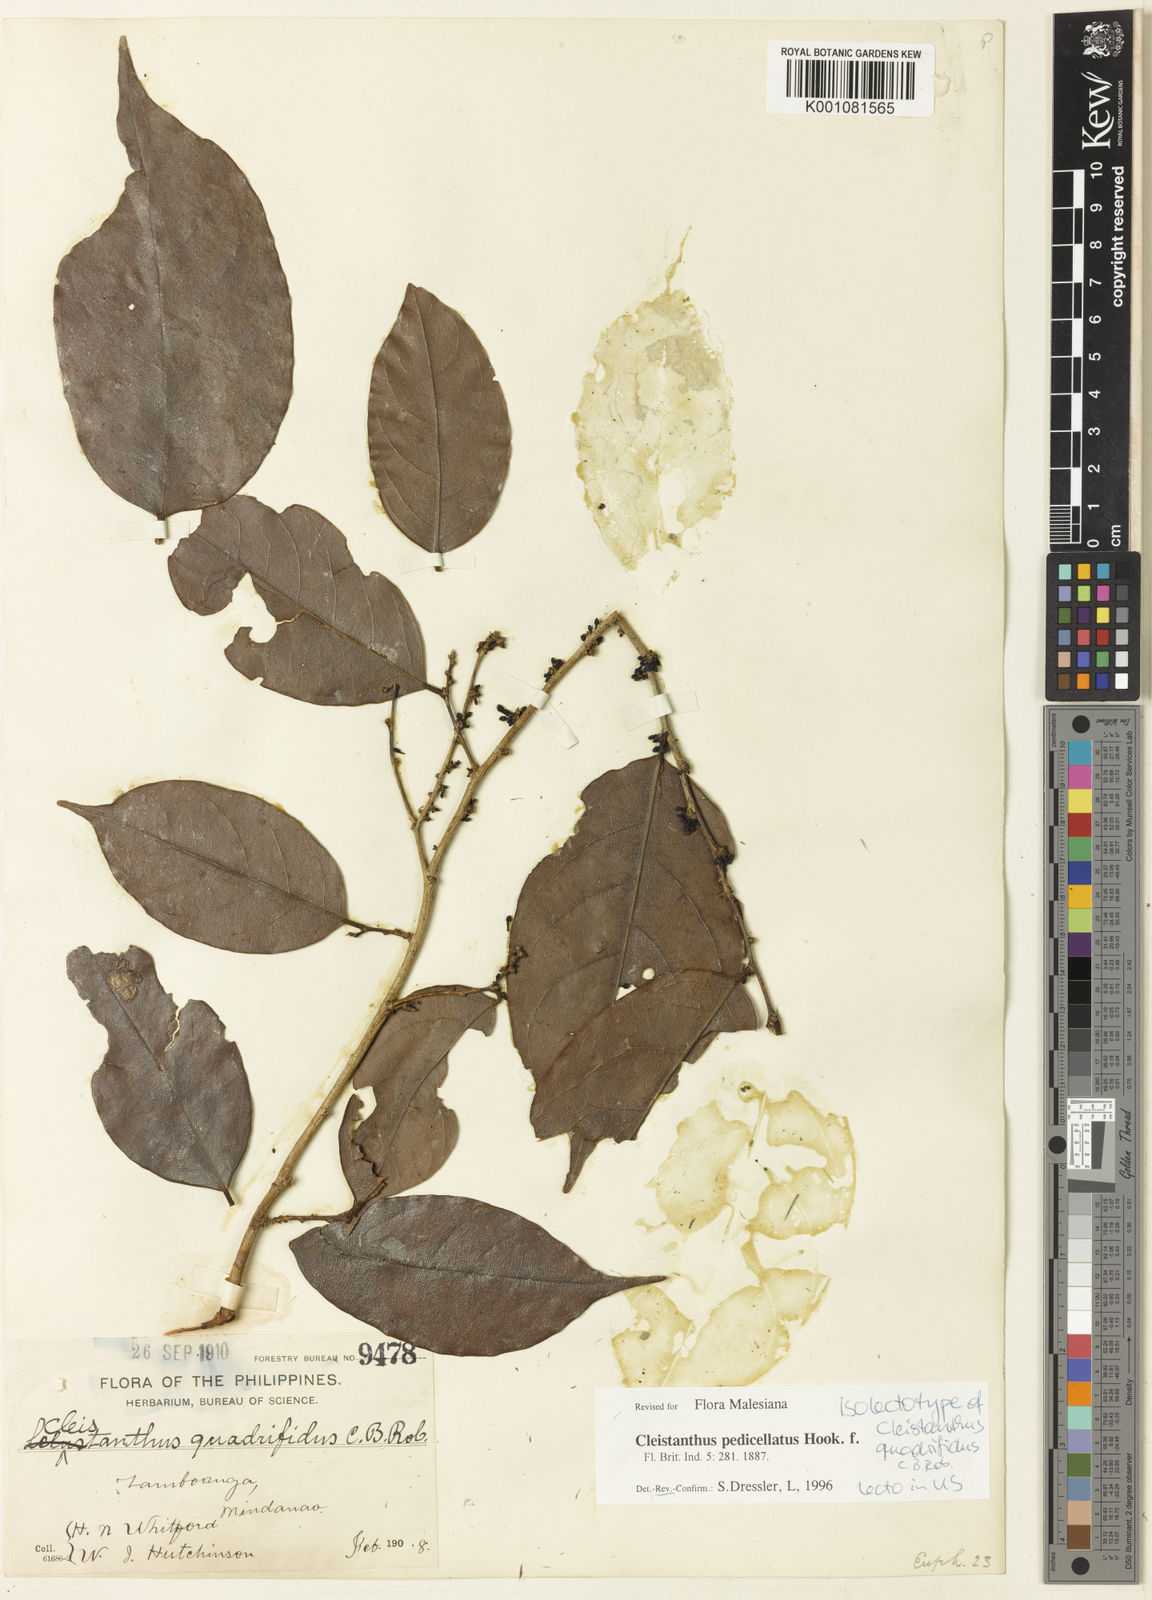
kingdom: Plantae
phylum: Tracheophyta
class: Magnoliopsida
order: Malpighiales
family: Phyllanthaceae
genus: Cleistanthus
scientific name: Cleistanthus pedicellatus
